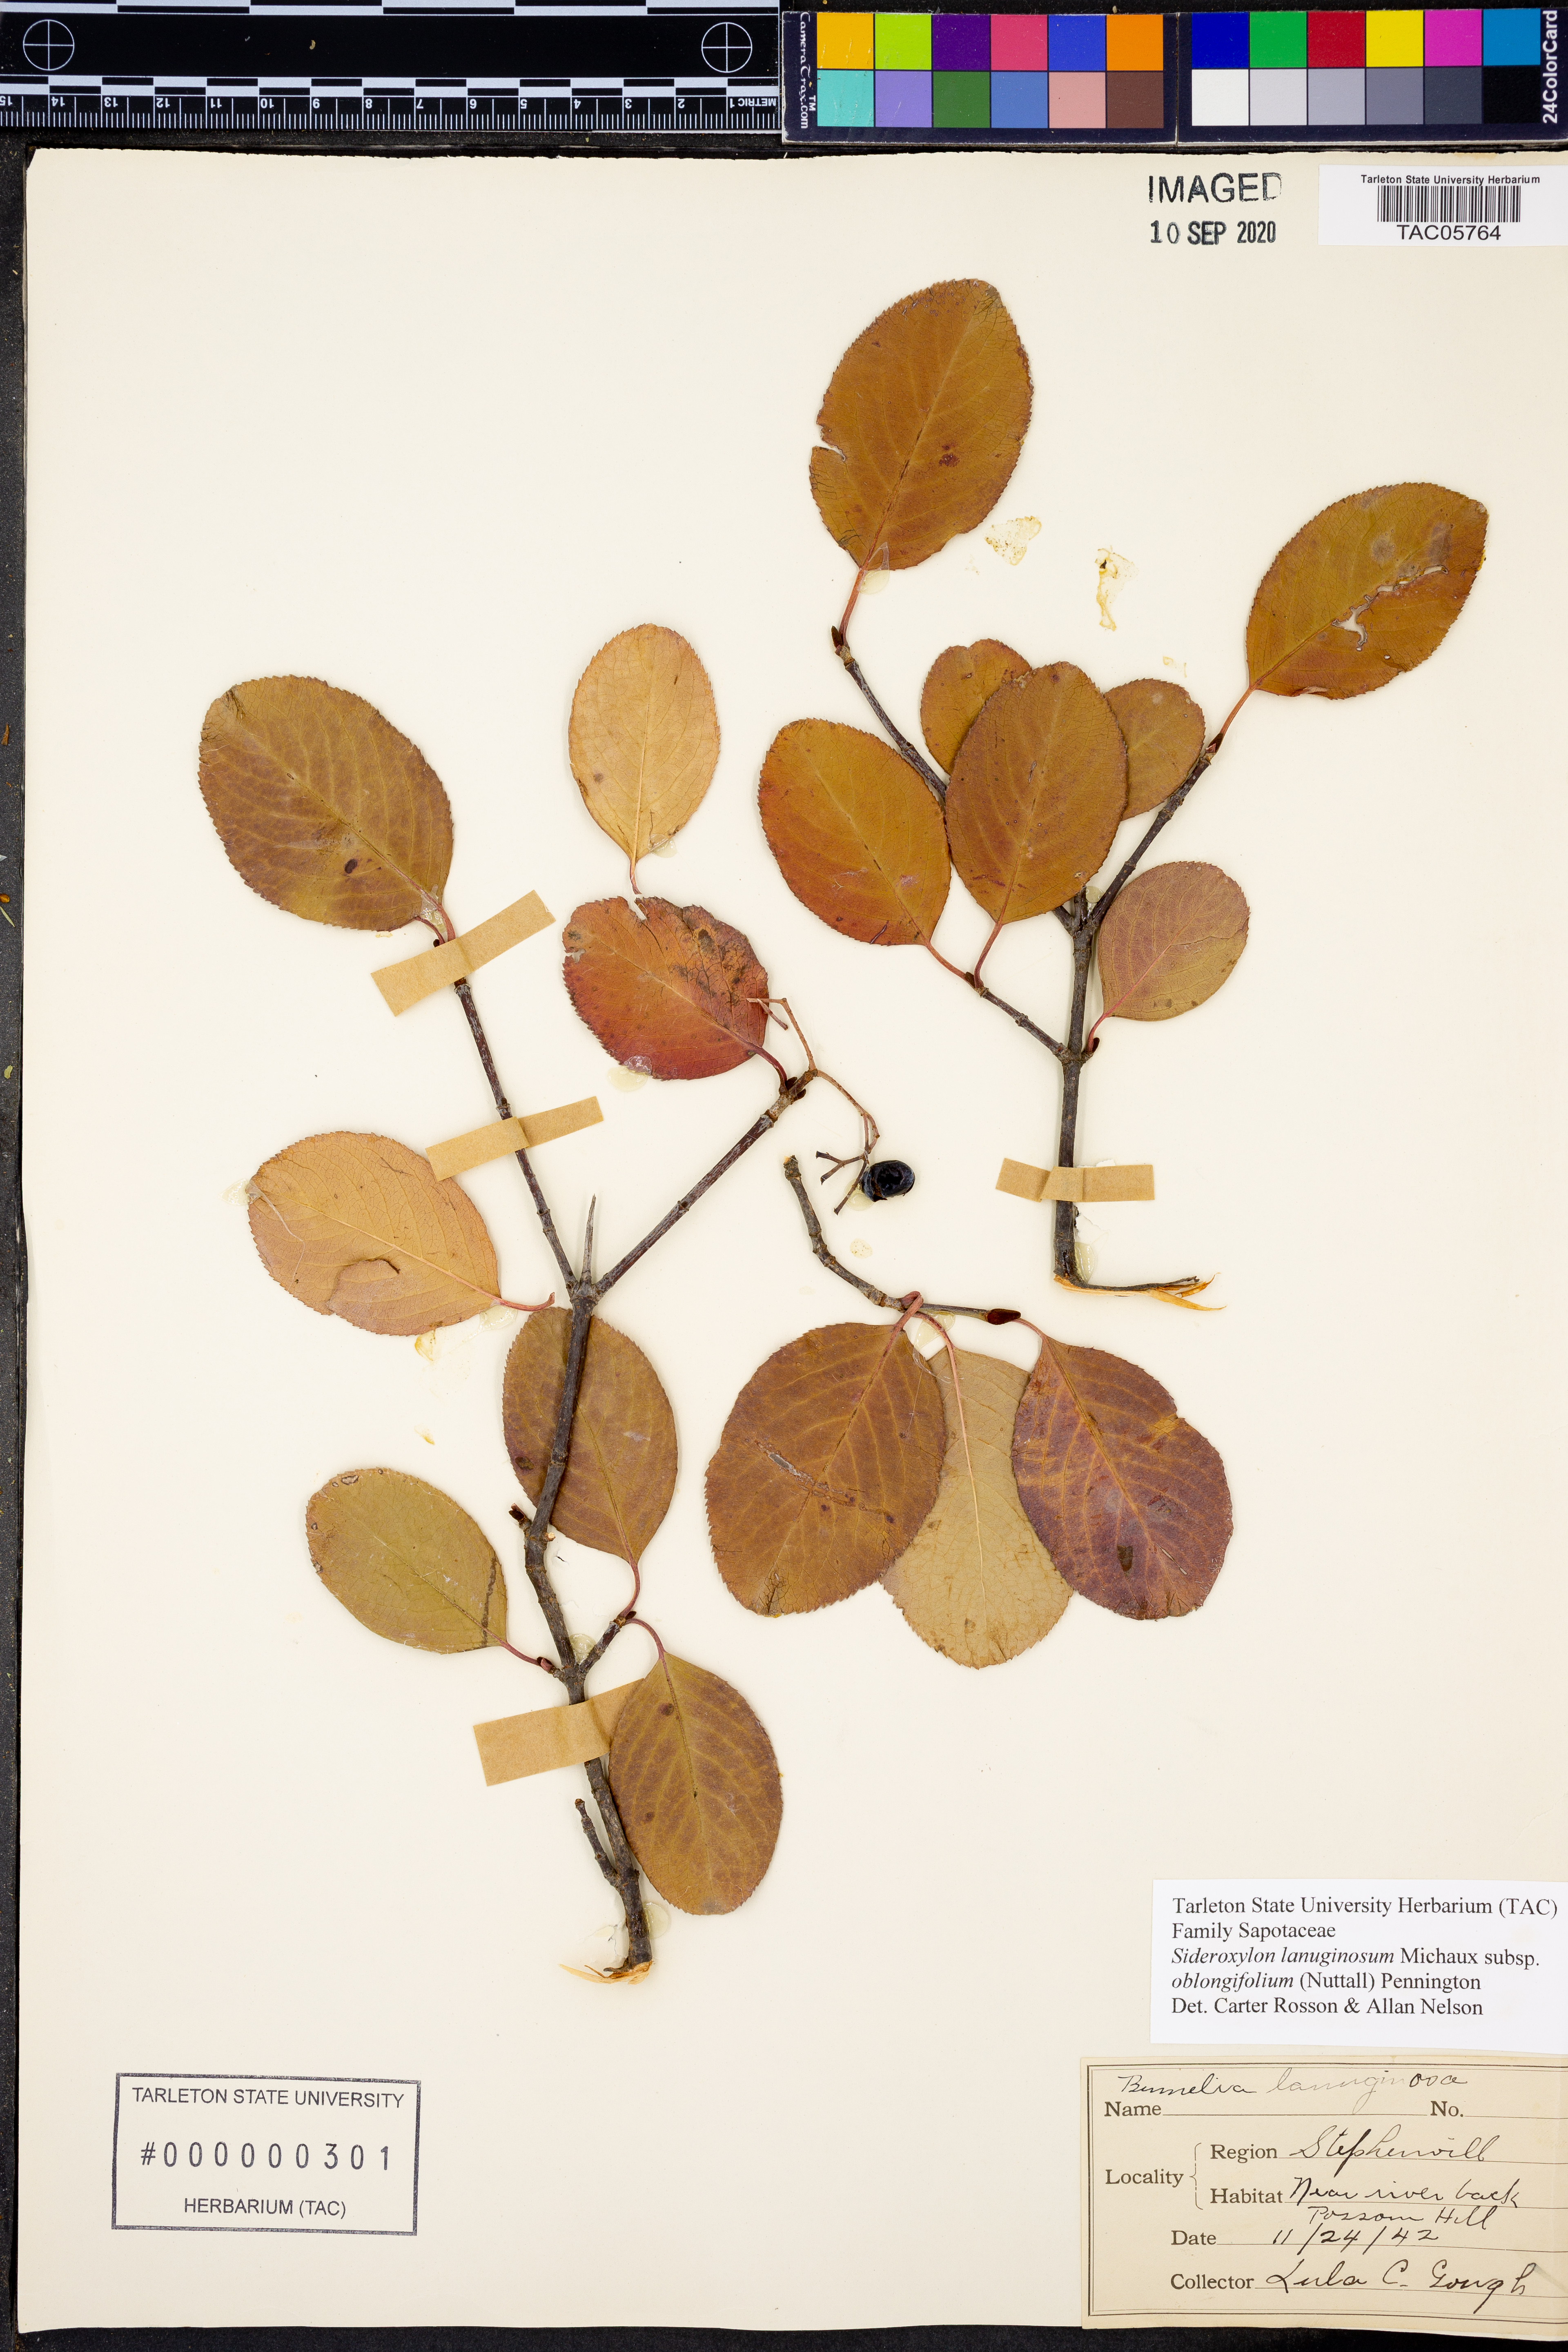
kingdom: Plantae
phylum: Tracheophyta
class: Magnoliopsida
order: Ericales
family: Sapotaceae
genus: Sideroxylon
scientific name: Sideroxylon lanuginosum
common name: Chittamwood
